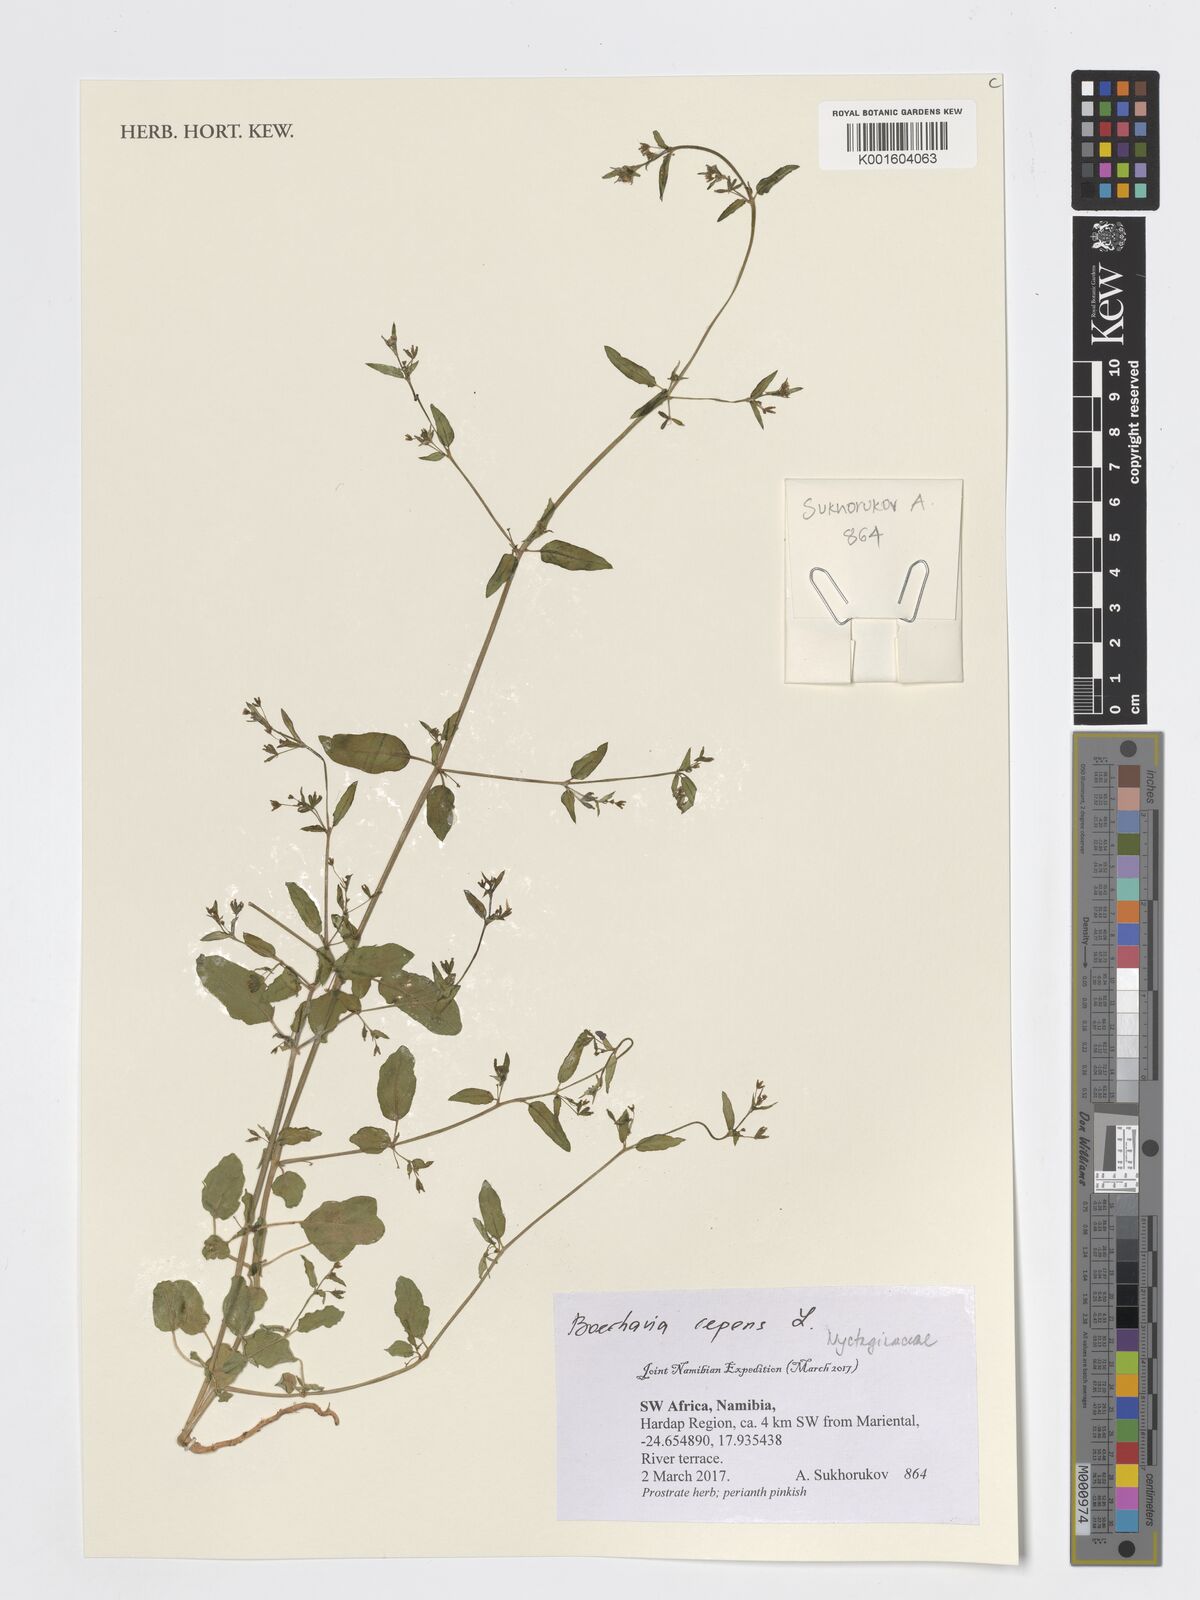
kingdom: Plantae
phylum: Tracheophyta
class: Magnoliopsida
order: Caryophyllales
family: Nyctaginaceae
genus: Boerhavia
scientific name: Boerhavia repens
